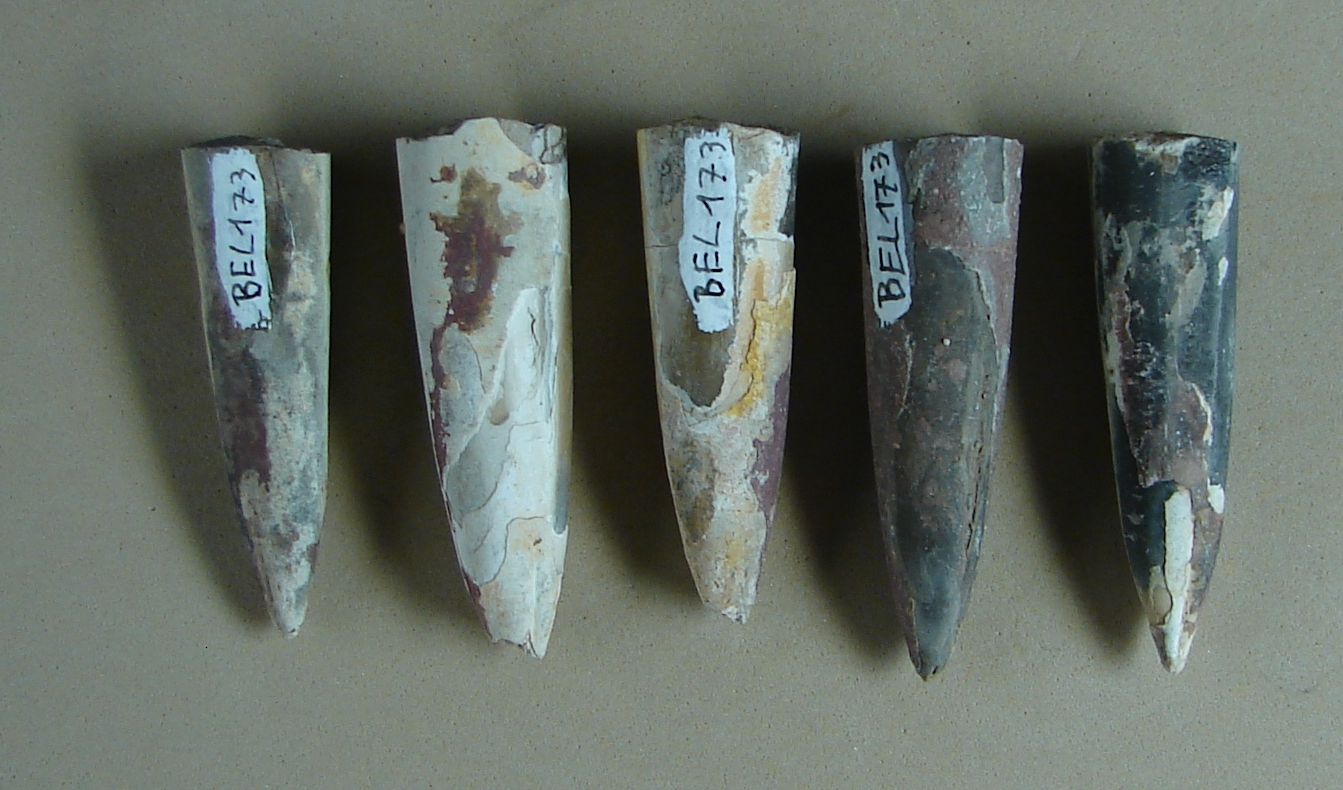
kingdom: Animalia
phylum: Mollusca
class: Cephalopoda
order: Belemnitida
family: Megateuthididae
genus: Acrocoelites
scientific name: Acrocoelites
